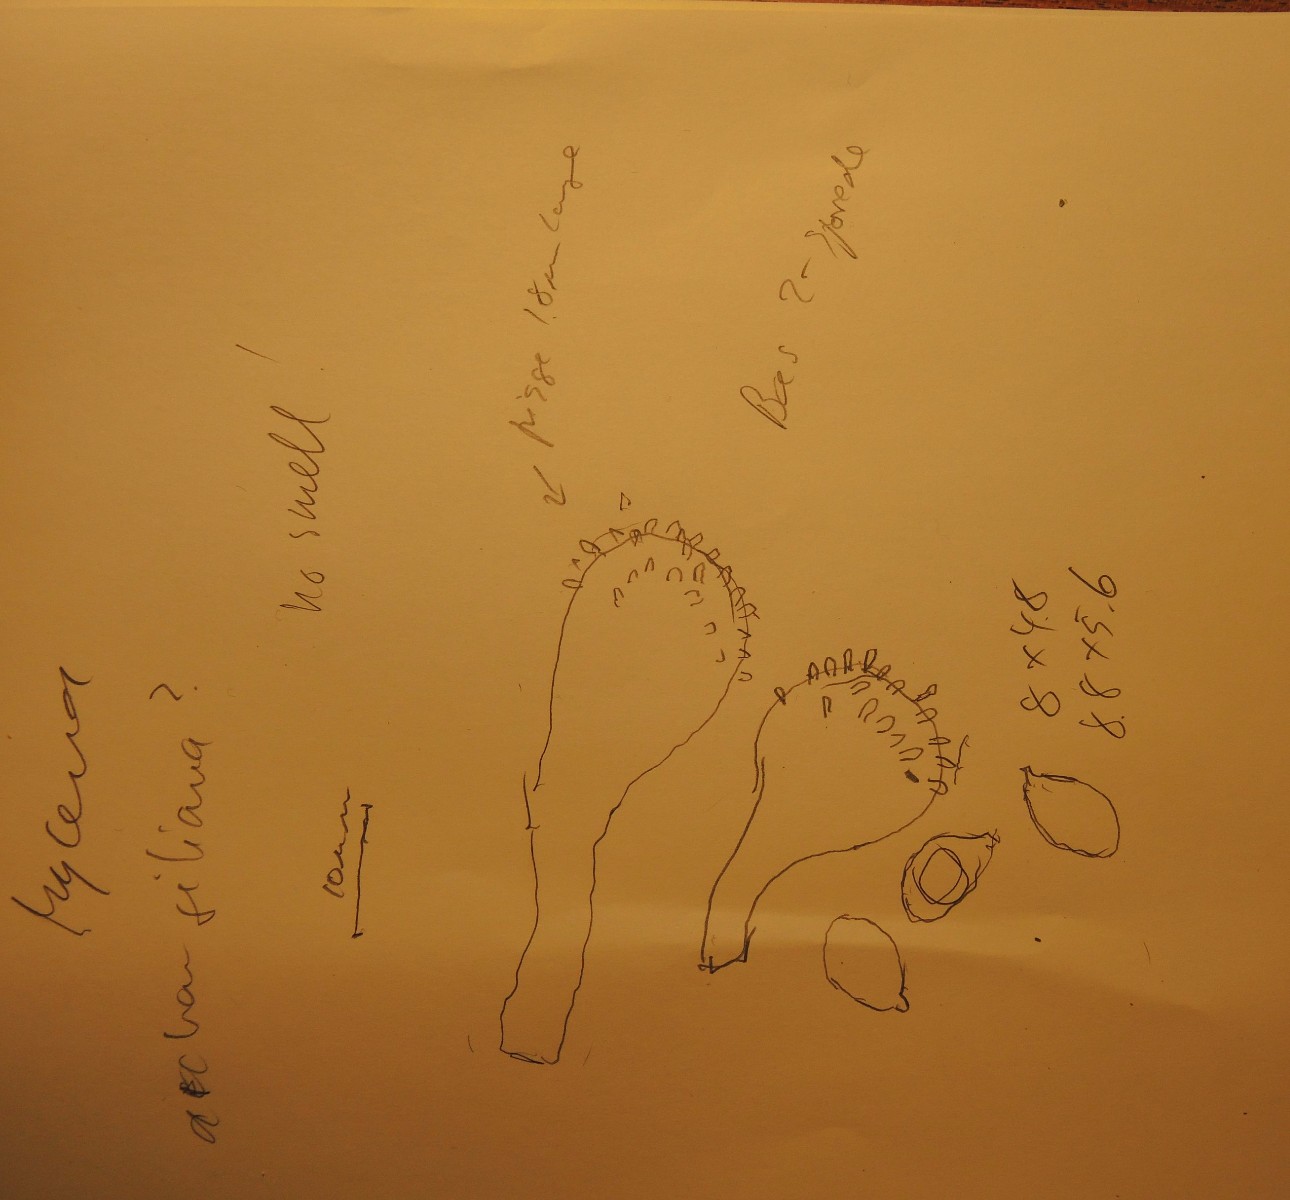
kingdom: Fungi
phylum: Basidiomycota
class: Agaricomycetes
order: Agaricales
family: Mycenaceae
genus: Mycena
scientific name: Mycena
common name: huesvamp
